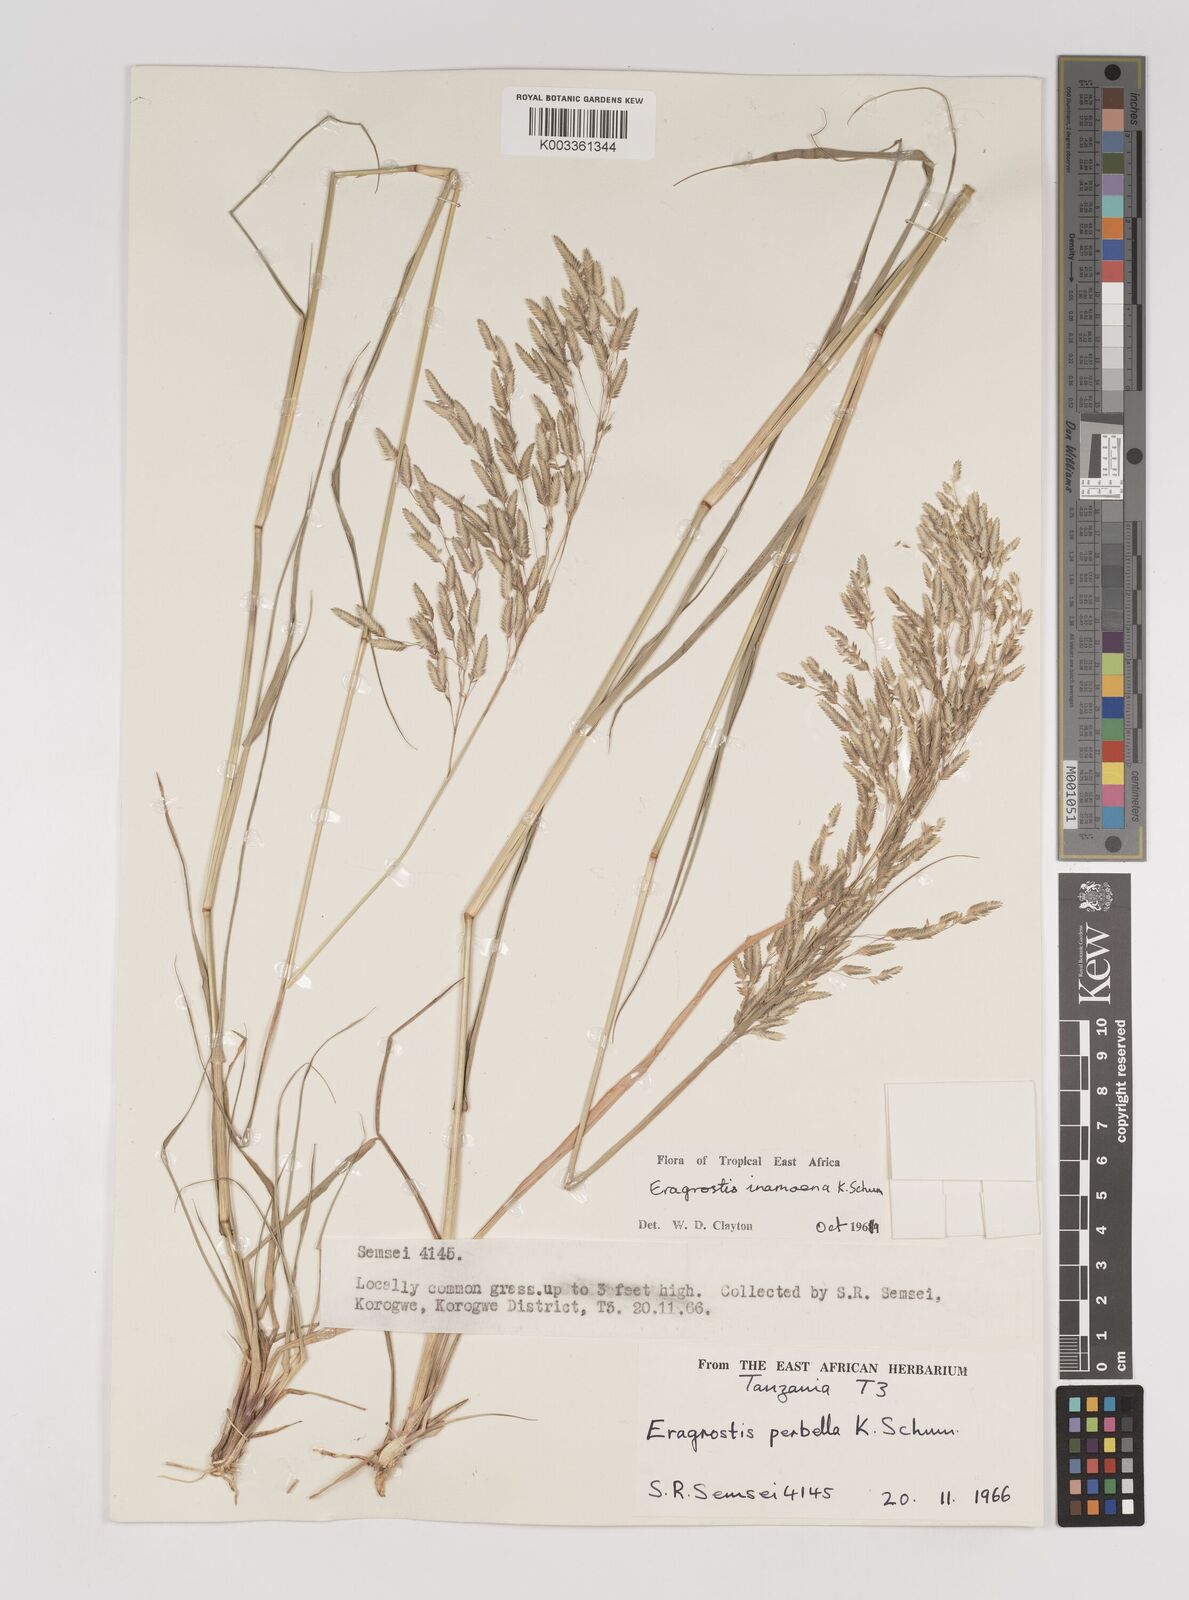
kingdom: Plantae
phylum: Tracheophyta
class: Liliopsida
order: Poales
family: Poaceae
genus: Eragrostis
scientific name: Eragrostis inamoena
